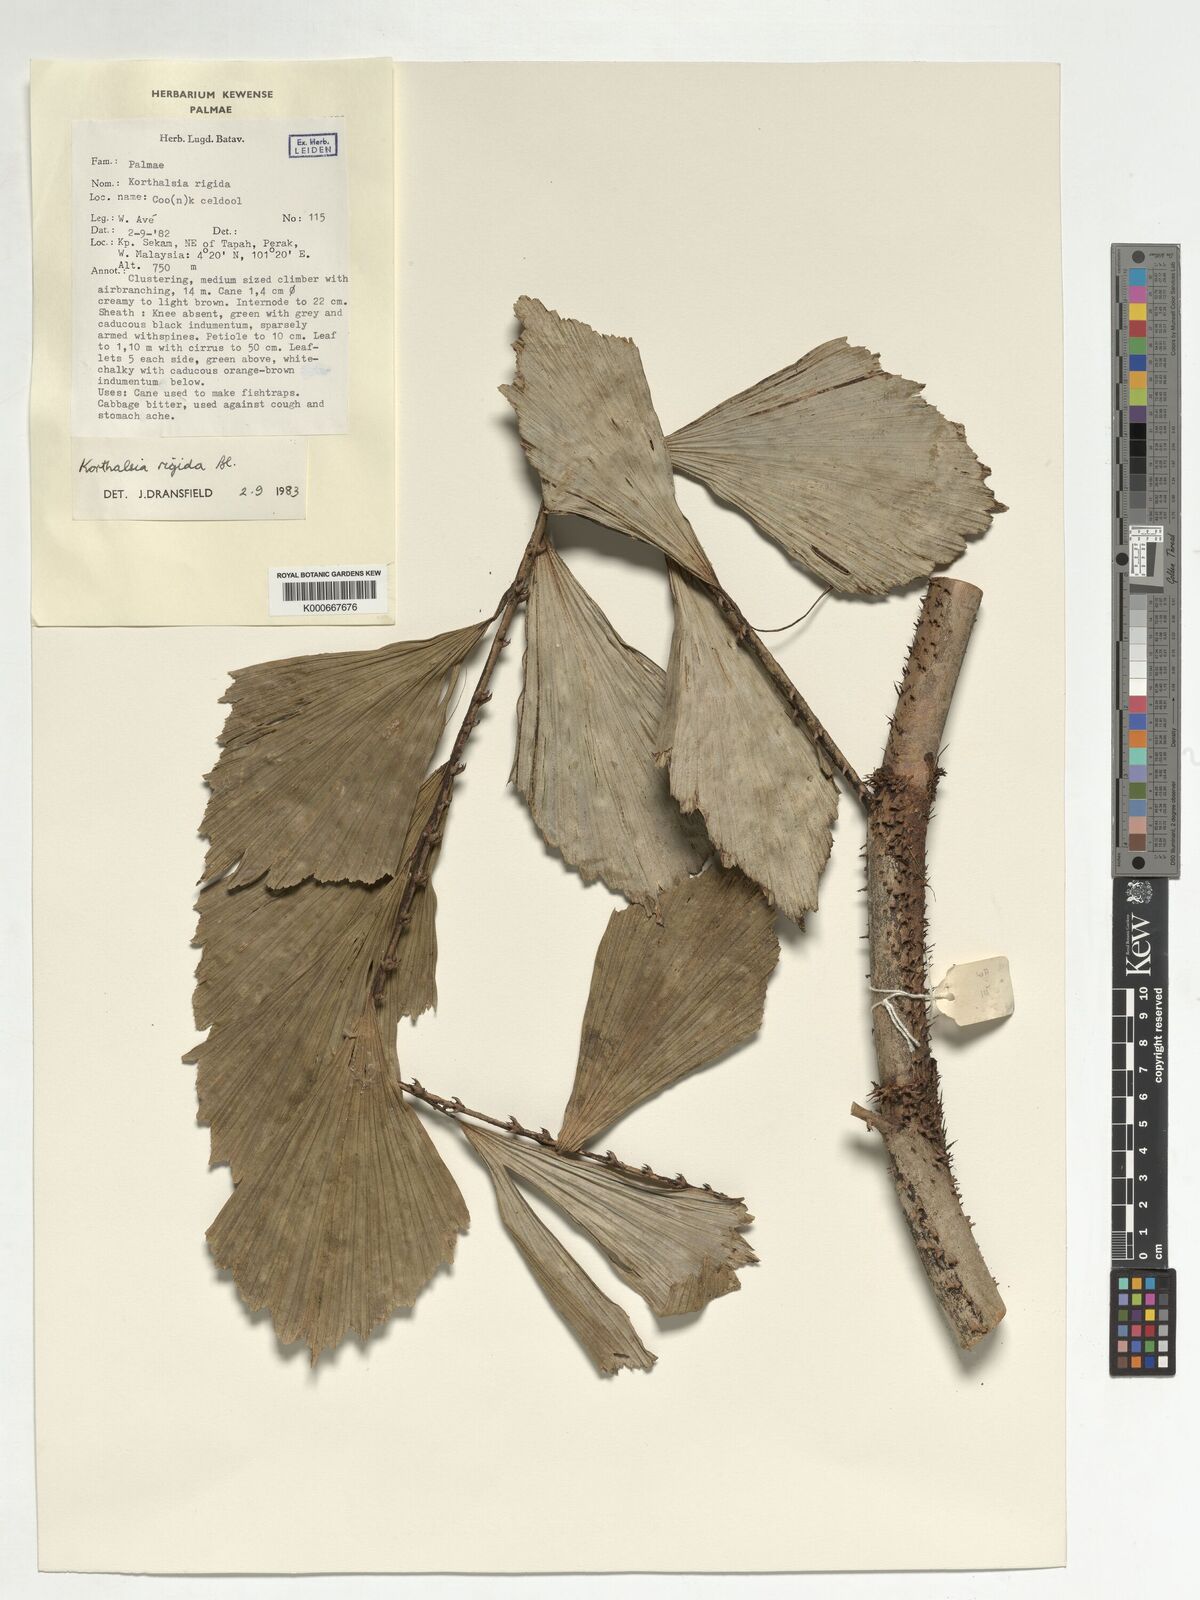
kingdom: Plantae
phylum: Tracheophyta
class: Liliopsida
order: Arecales
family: Arecaceae
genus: Korthalsia
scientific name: Korthalsia rigida
